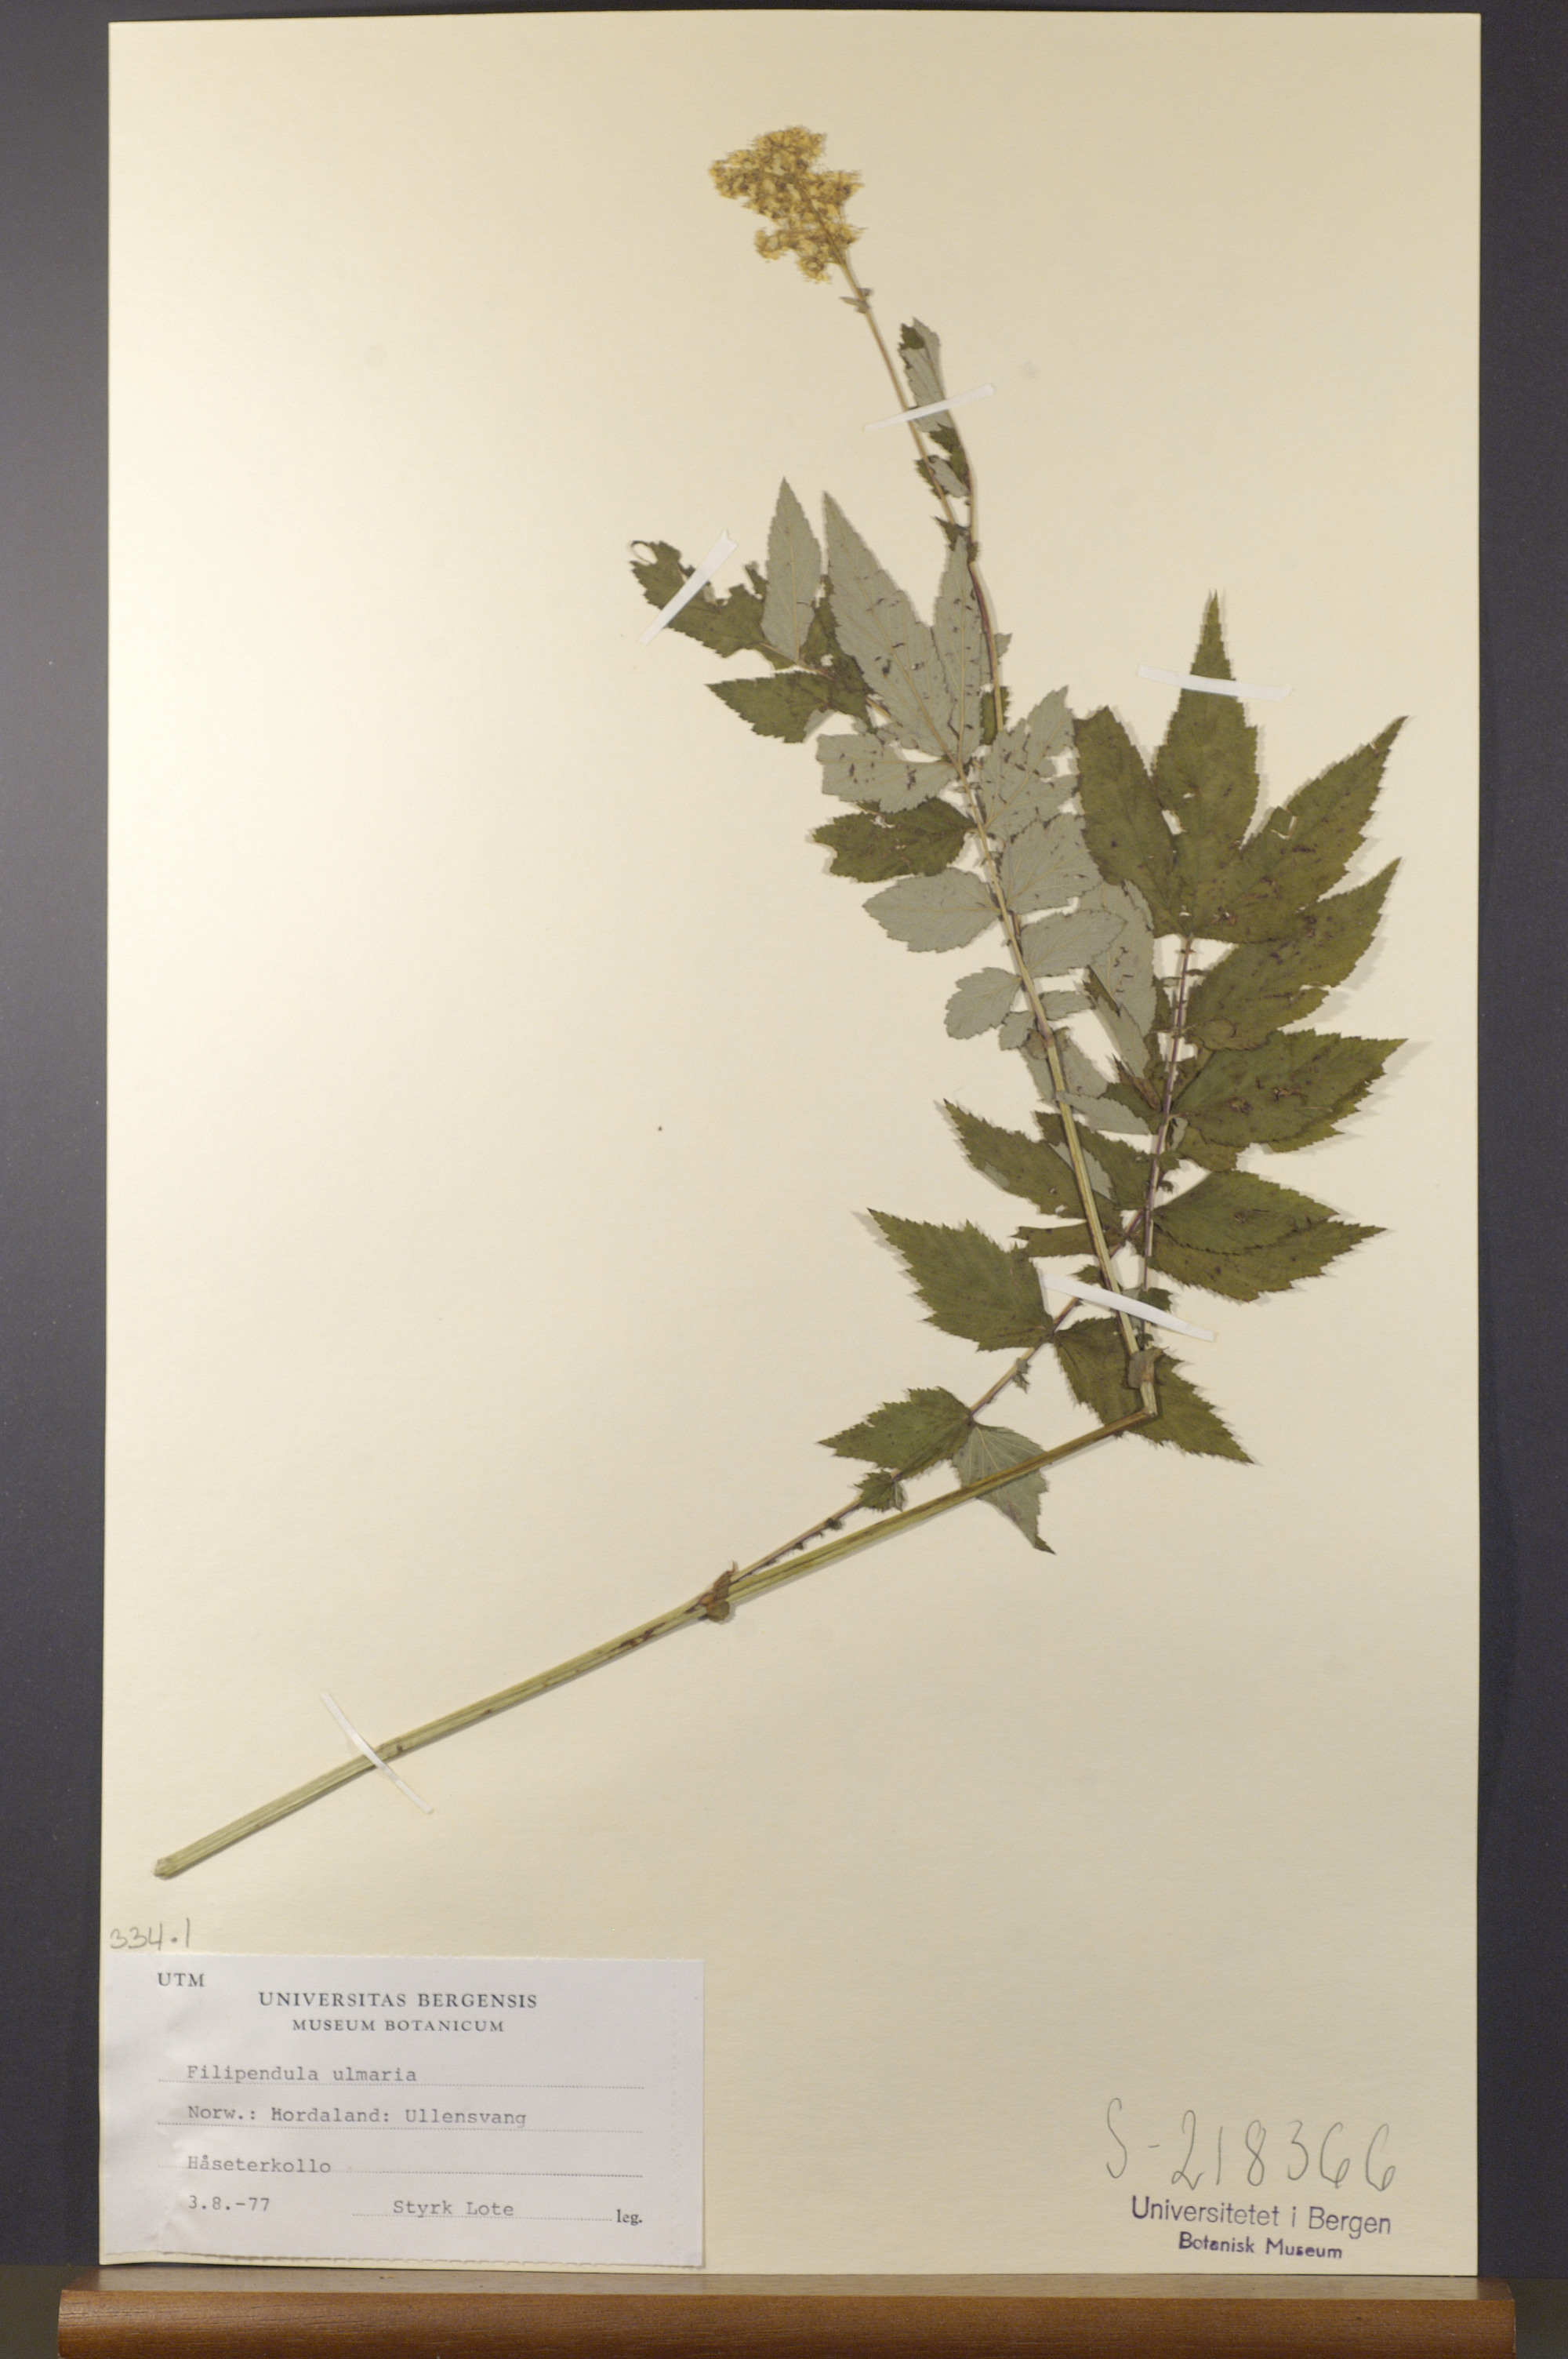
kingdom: Plantae
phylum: Tracheophyta
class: Magnoliopsida
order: Rosales
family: Rosaceae
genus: Filipendula
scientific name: Filipendula ulmaria
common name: Meadowsweet
